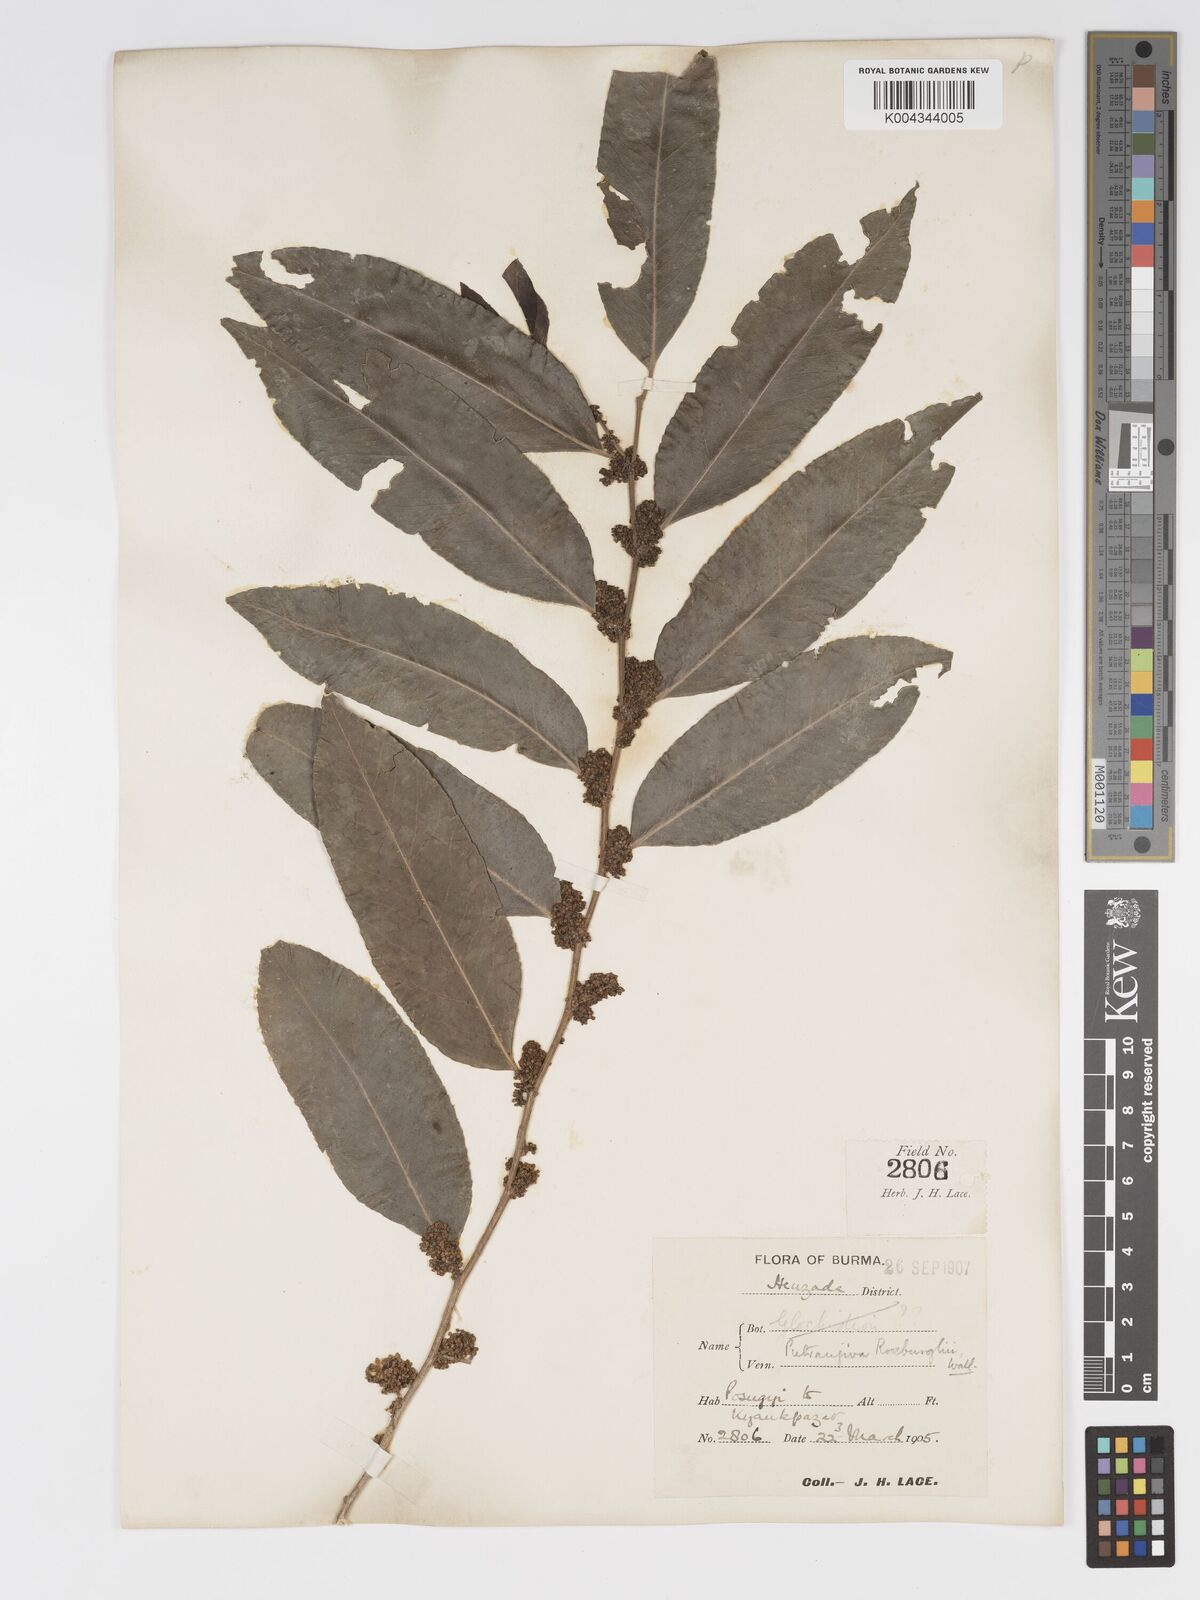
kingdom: Plantae
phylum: Tracheophyta
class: Magnoliopsida
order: Malpighiales
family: Putranjivaceae
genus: Putranjiva
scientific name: Putranjiva roxburghii
